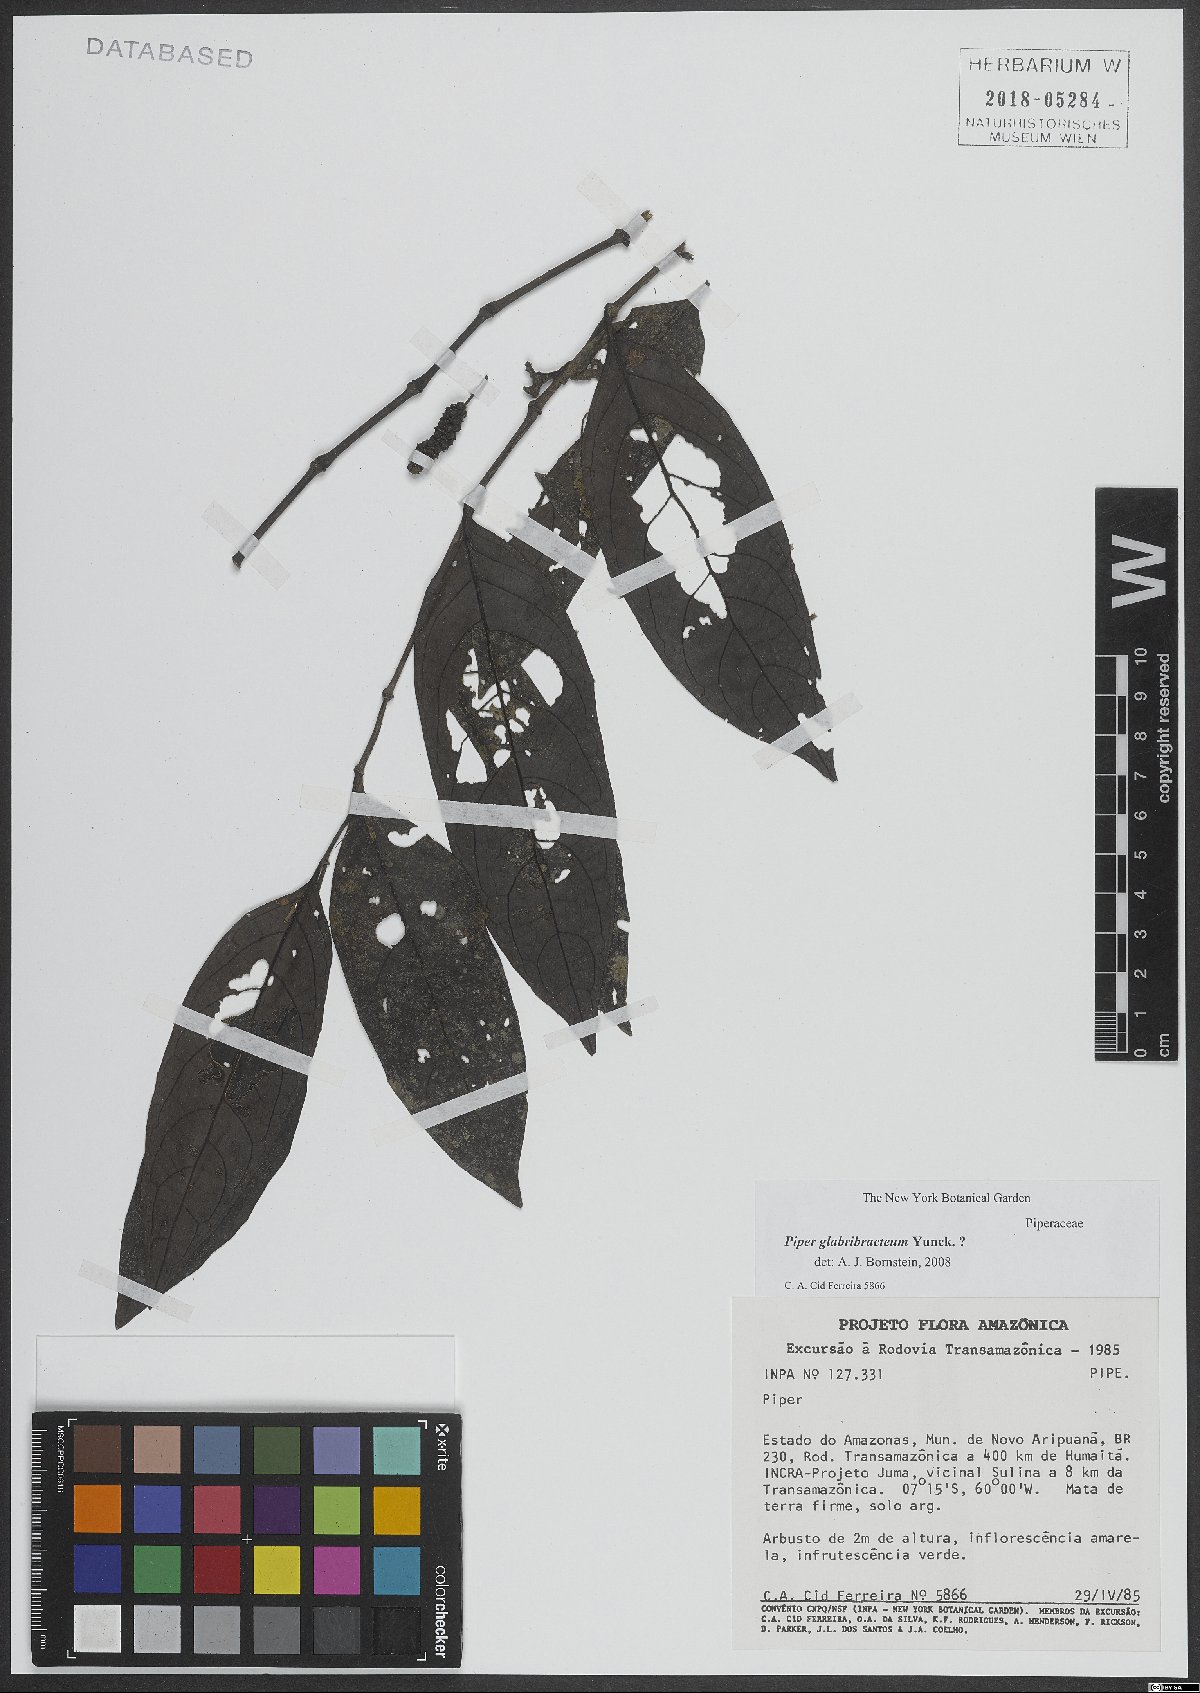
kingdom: Plantae
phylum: Tracheophyta
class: Magnoliopsida
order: Piperales
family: Piperaceae
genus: Piper
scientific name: Piper glabribracteum
